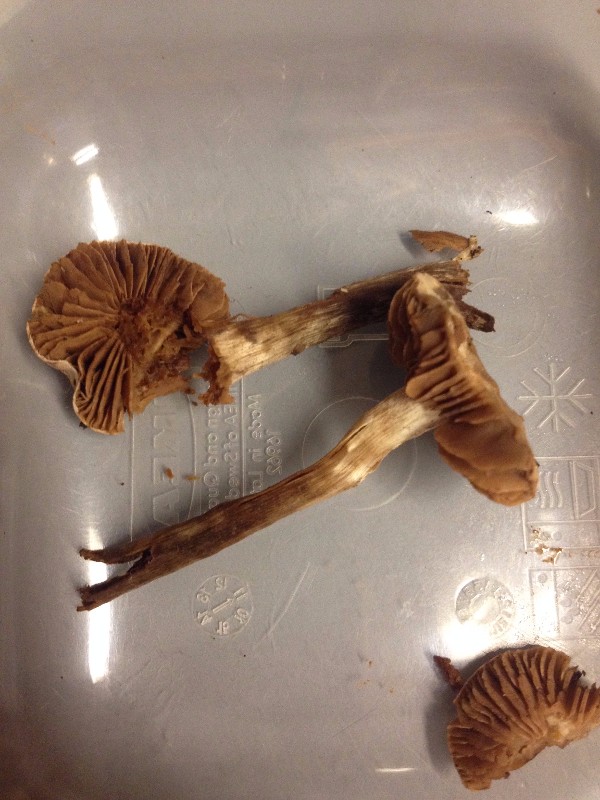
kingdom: Fungi
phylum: Basidiomycota
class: Agaricomycetes
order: Agaricales
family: Hymenogastraceae
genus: Hebeloma
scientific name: Hebeloma sacchariolens
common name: sødtduftende tåreblad
